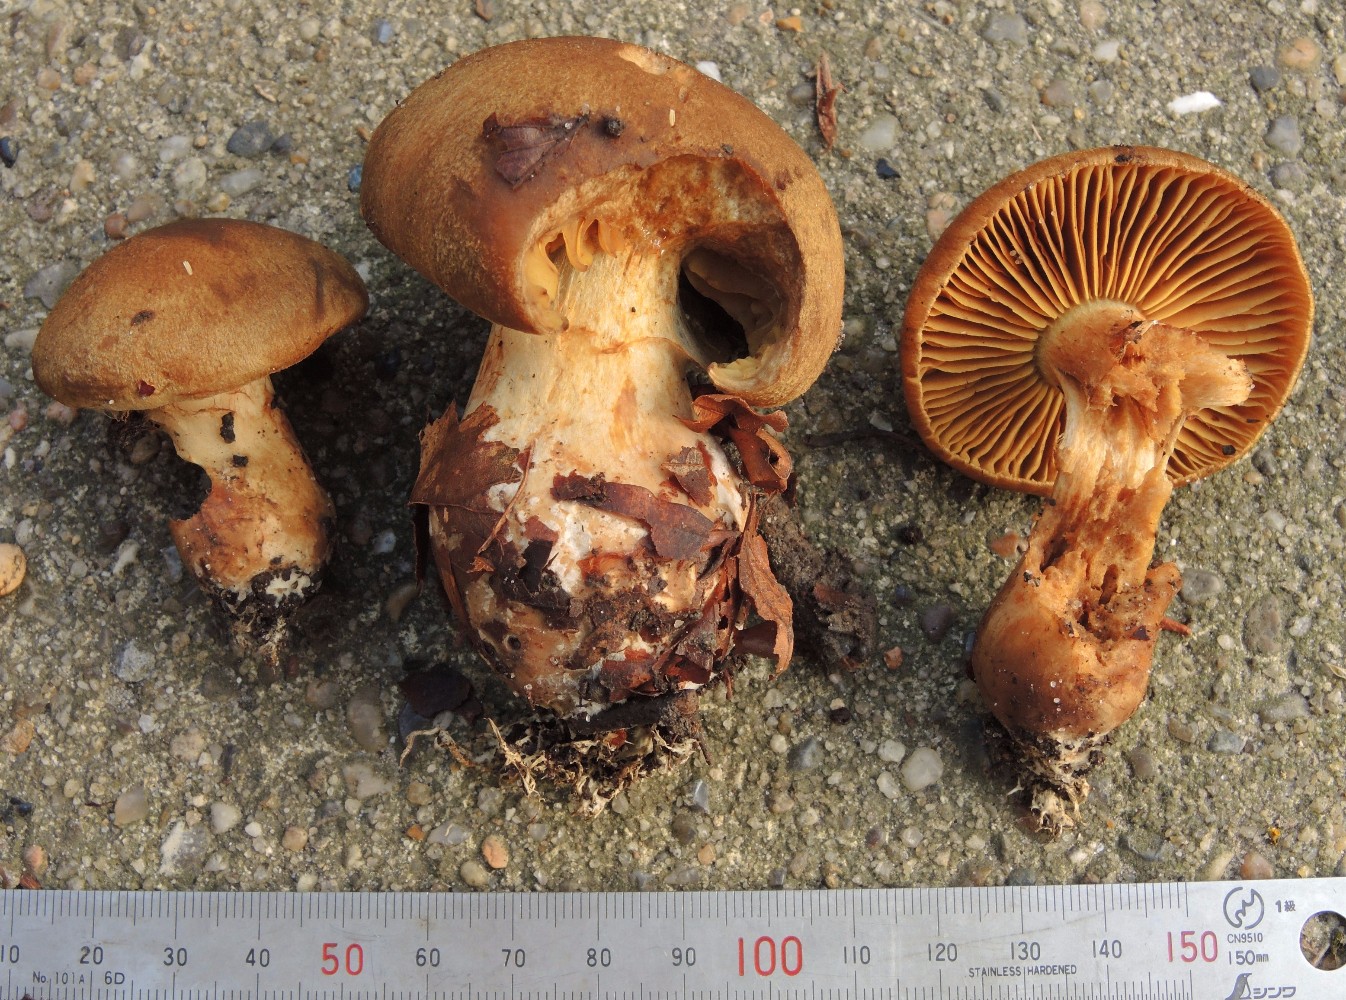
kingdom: Fungi
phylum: Basidiomycota
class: Agaricomycetes
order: Agaricales
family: Cortinariaceae
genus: Cortinarius
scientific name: Cortinarius cotoneus
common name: ulden slørhat
